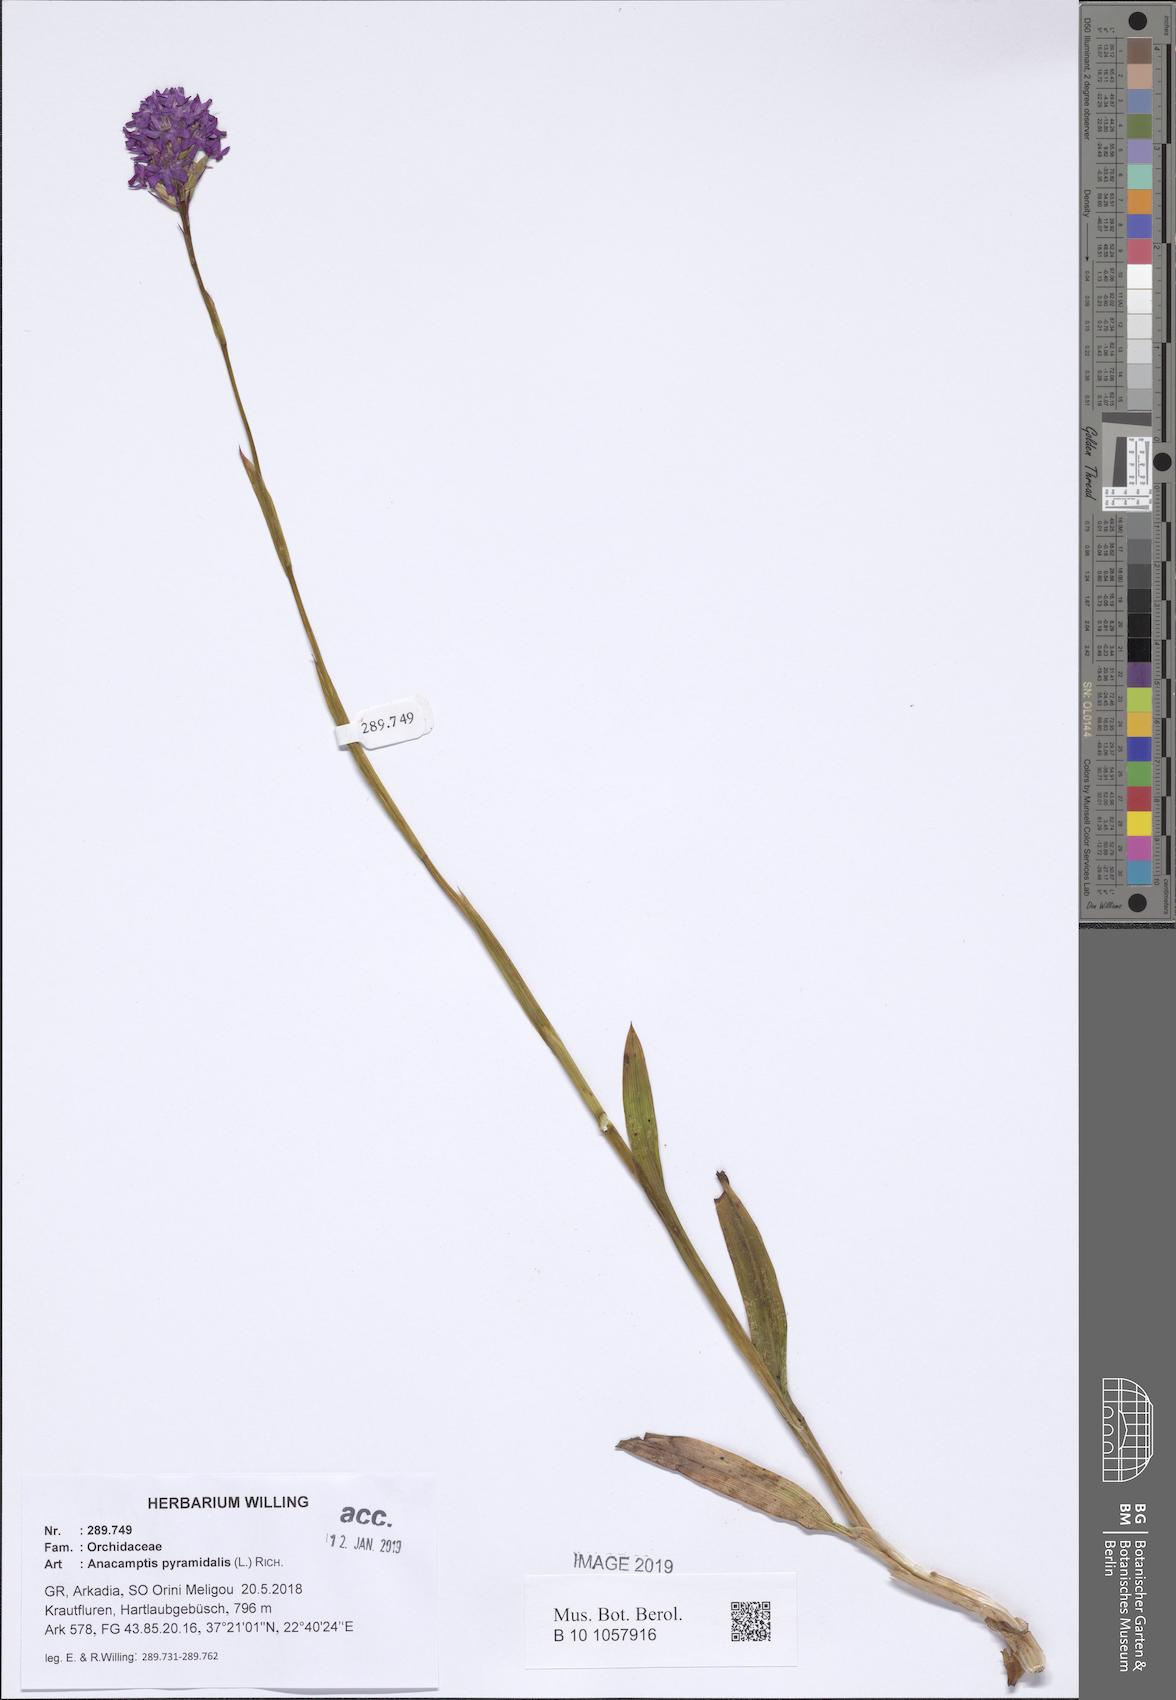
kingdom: Plantae
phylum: Tracheophyta
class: Liliopsida
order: Asparagales
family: Orchidaceae
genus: Anacamptis
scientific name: Anacamptis pyramidalis
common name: Pyramidal orchid
